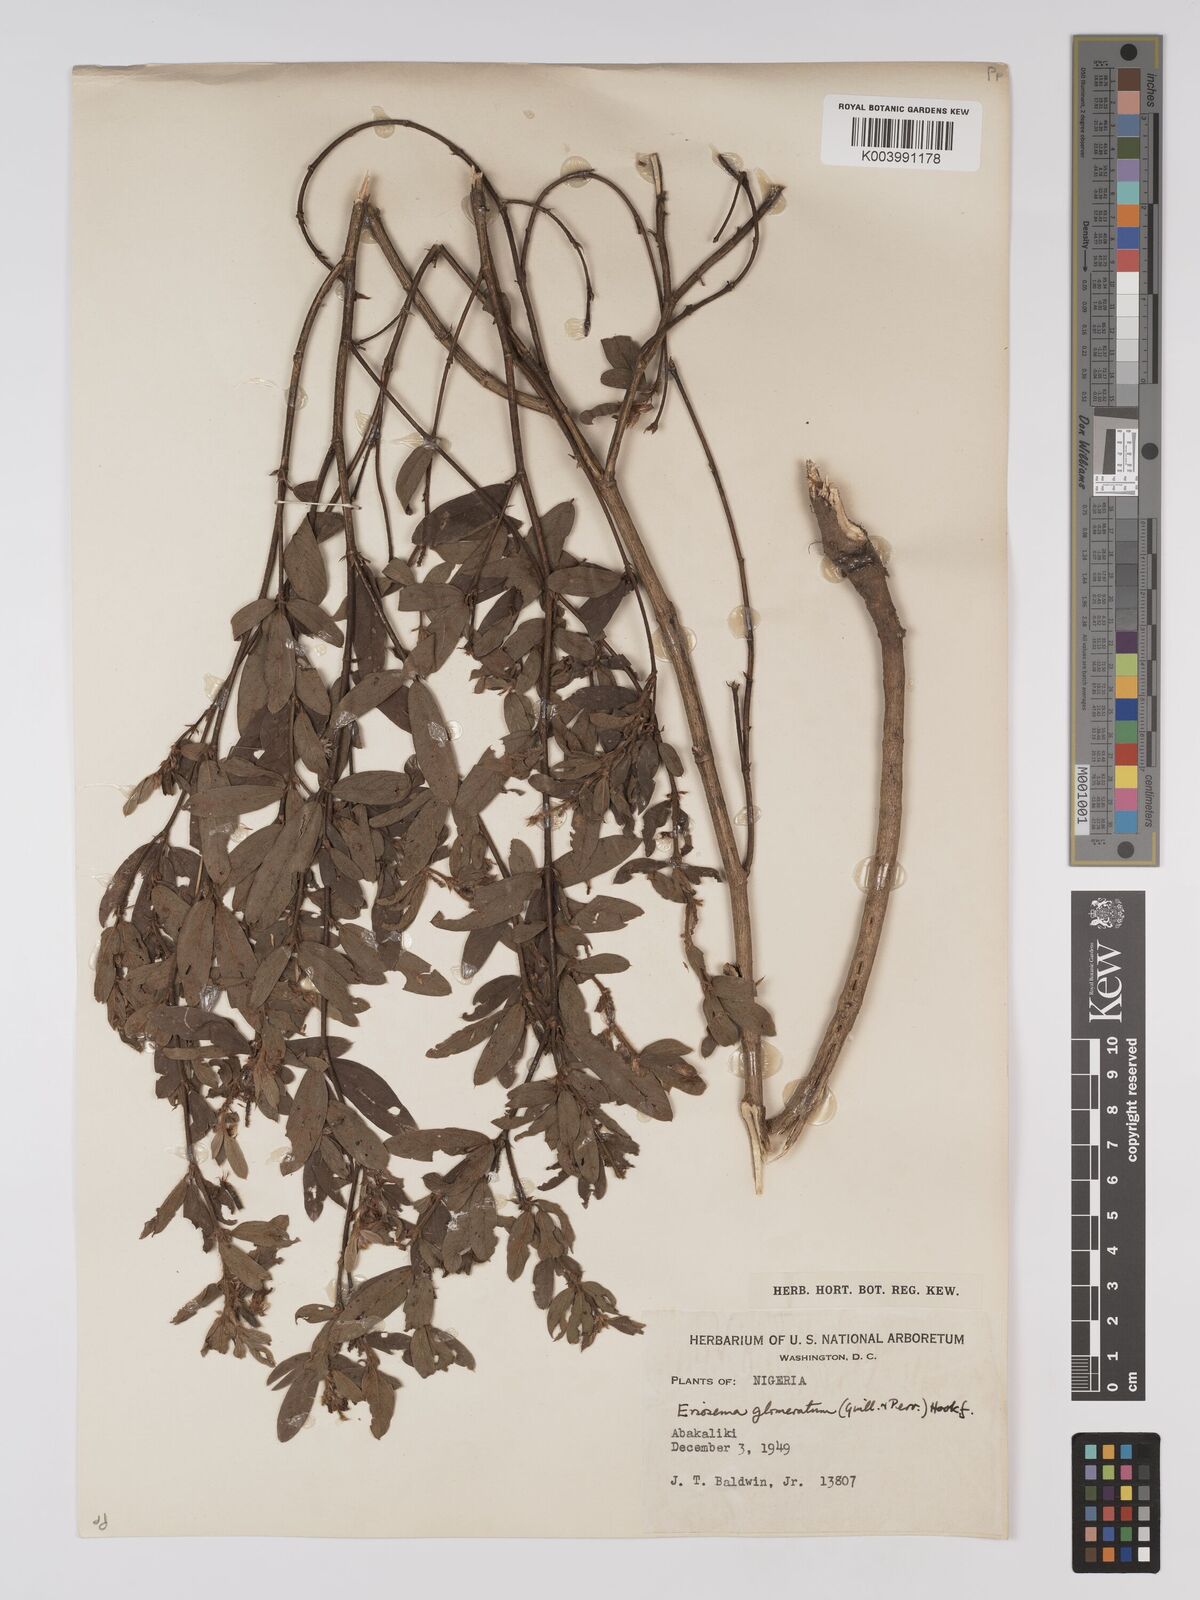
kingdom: Plantae
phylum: Tracheophyta
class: Magnoliopsida
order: Fabales
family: Fabaceae
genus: Eriosema
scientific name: Eriosema glomeratum
